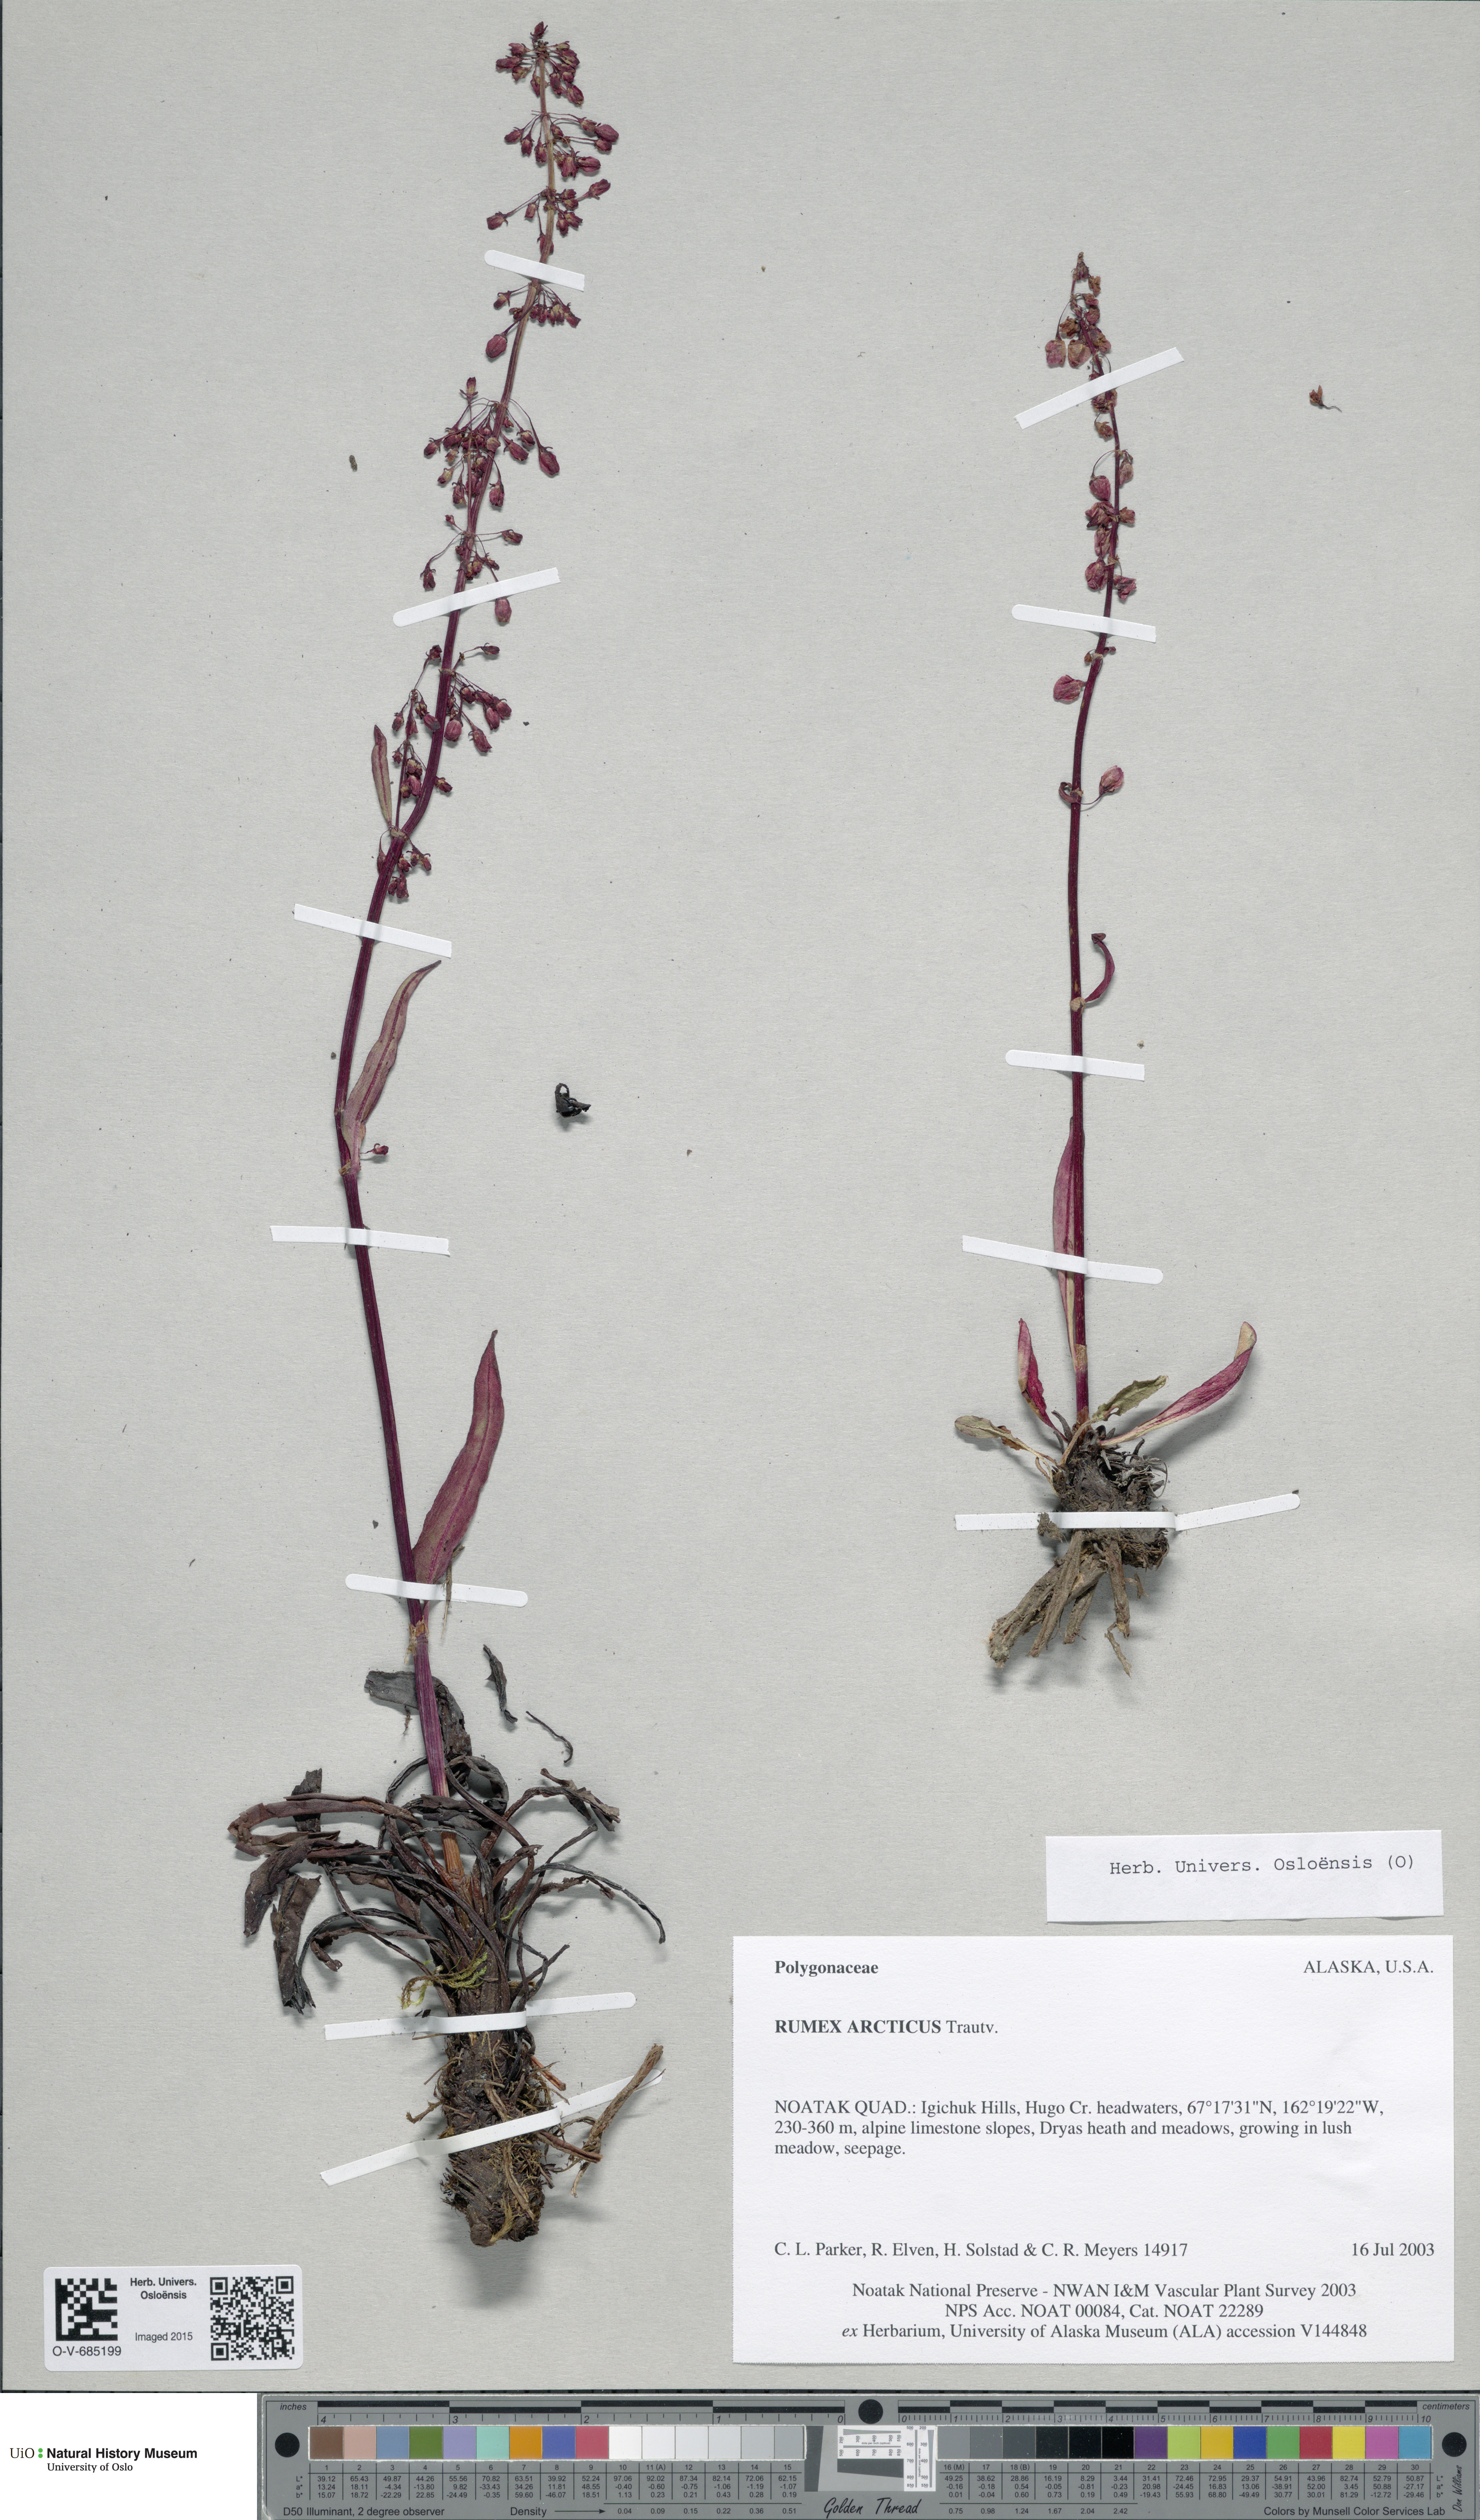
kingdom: Plantae
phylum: Tracheophyta
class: Magnoliopsida
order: Caryophyllales
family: Polygonaceae
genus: Rumex
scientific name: Rumex arcticus
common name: Arctic dock
